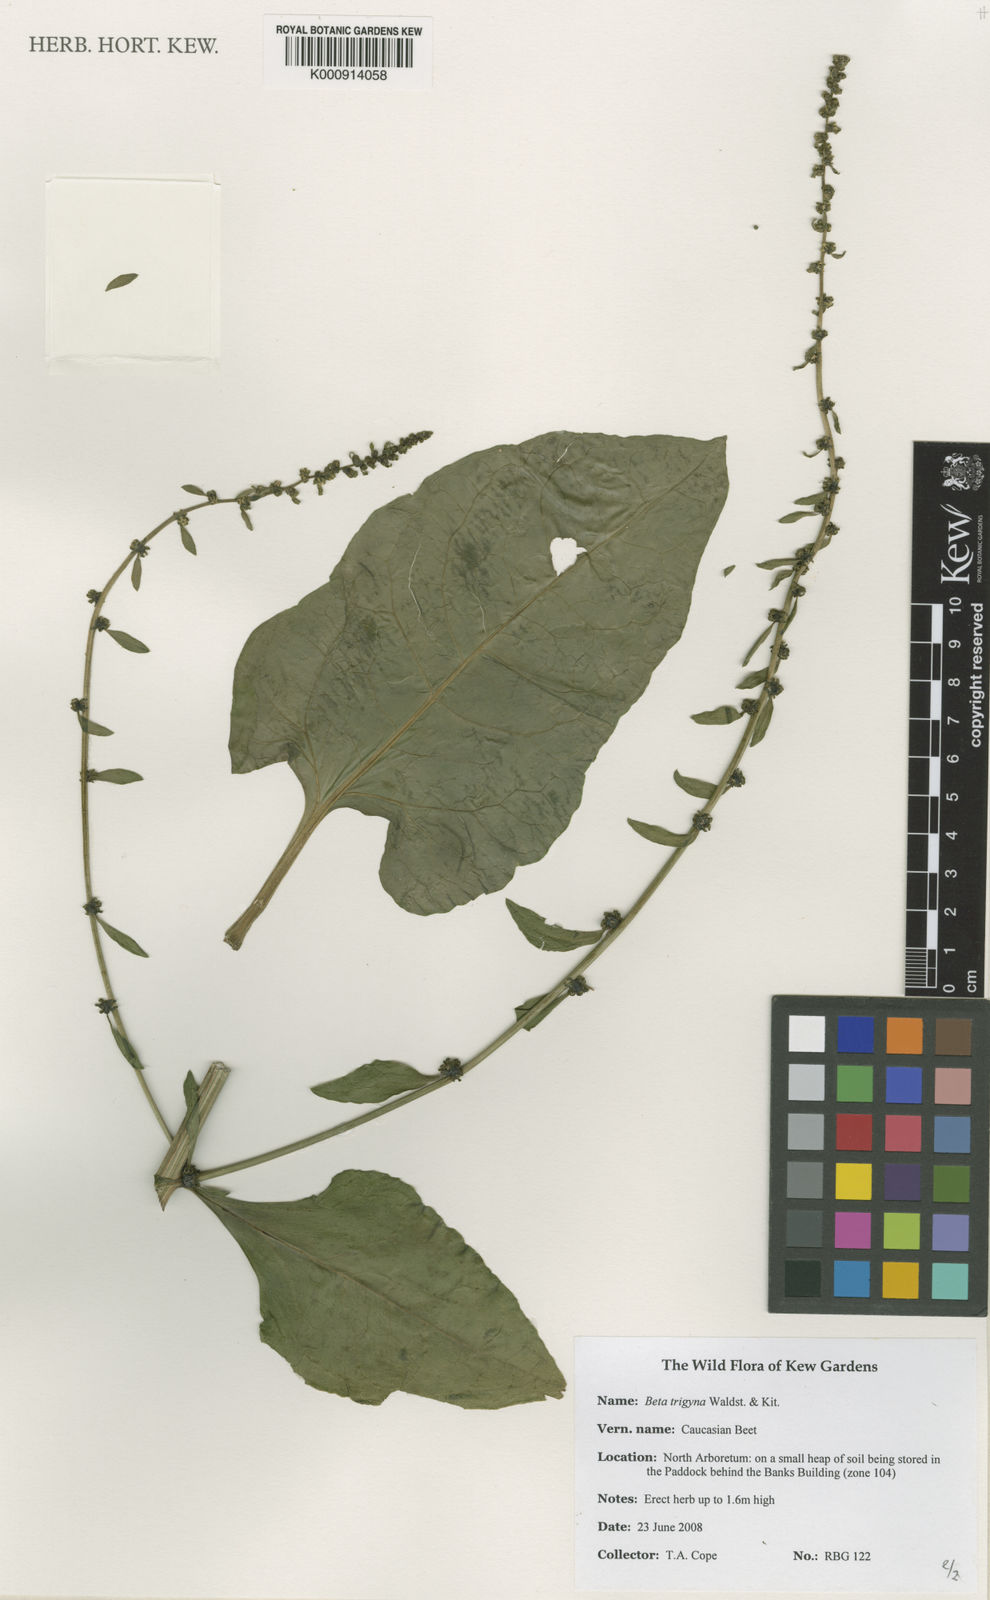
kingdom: Plantae
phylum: Tracheophyta
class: Magnoliopsida
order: Caryophyllales
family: Amaranthaceae
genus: Beta
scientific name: Beta trigyna
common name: Caucasian beet
